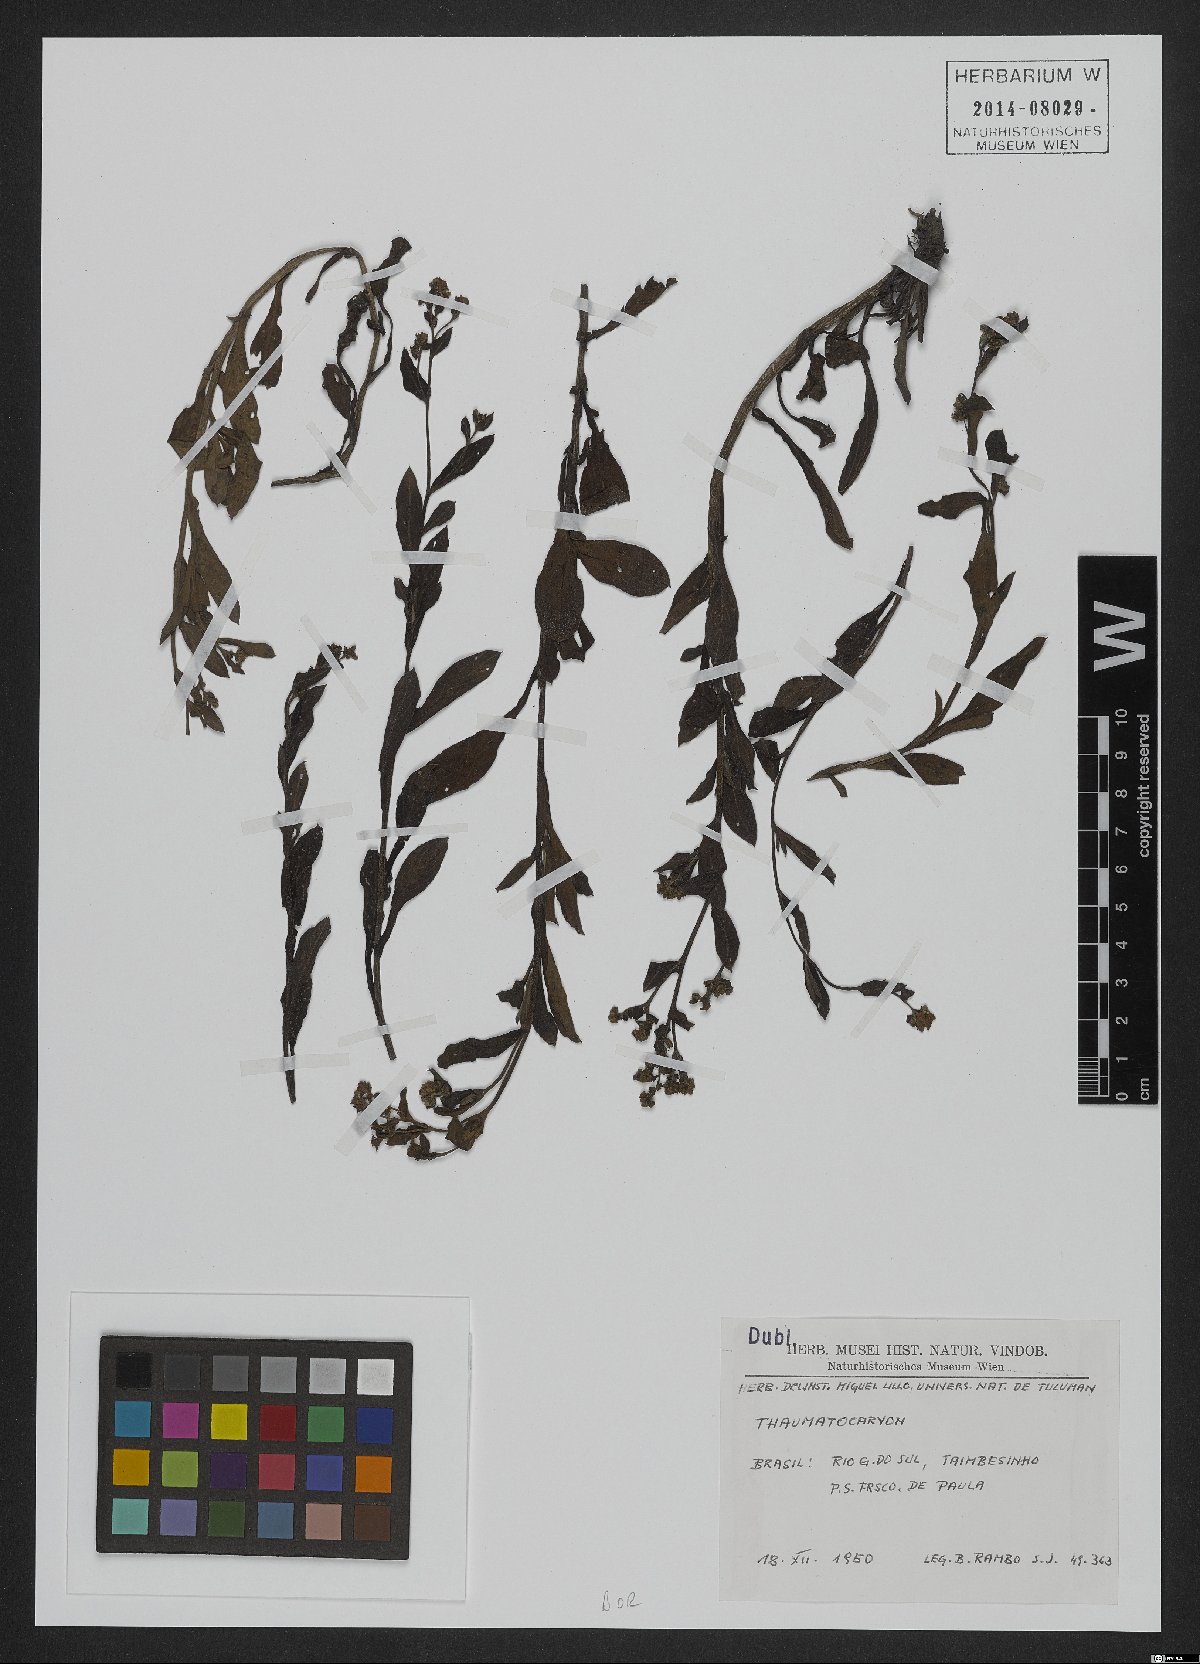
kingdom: Plantae
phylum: Tracheophyta
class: Magnoliopsida
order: Boraginales
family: Boraginaceae
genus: Thaumatocaryon
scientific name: Thaumatocaryon
